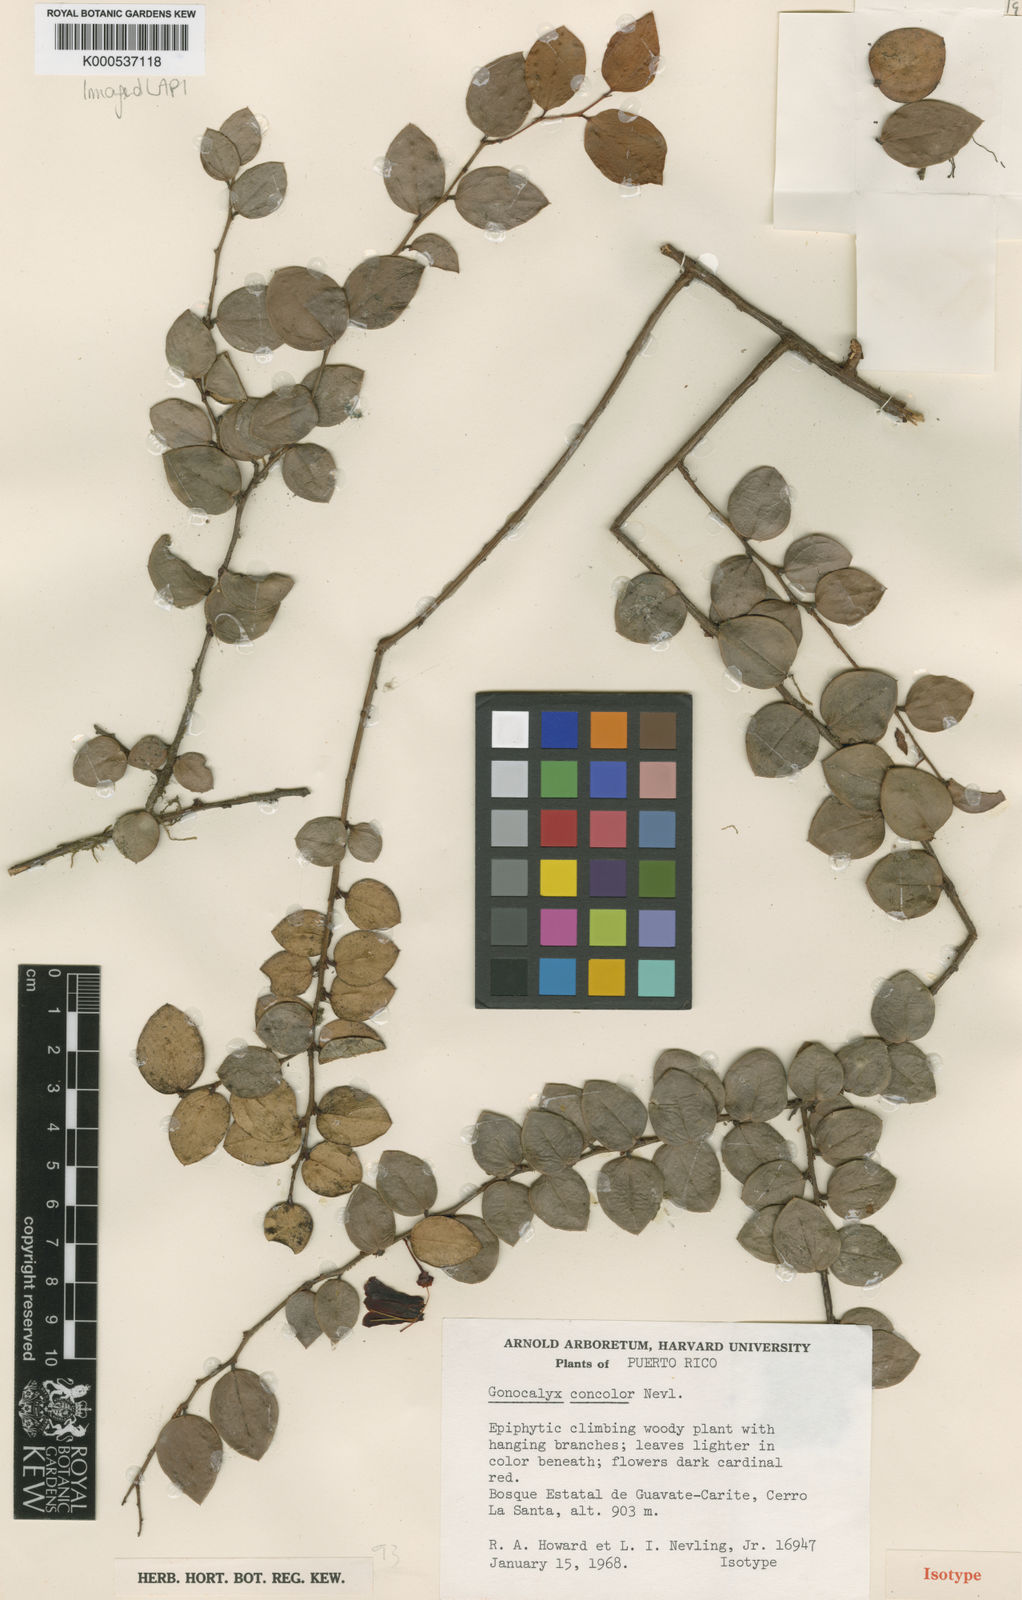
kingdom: Plantae
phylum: Tracheophyta
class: Magnoliopsida
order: Ericales
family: Ericaceae
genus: Gonocalyx
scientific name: Gonocalyx concolor
